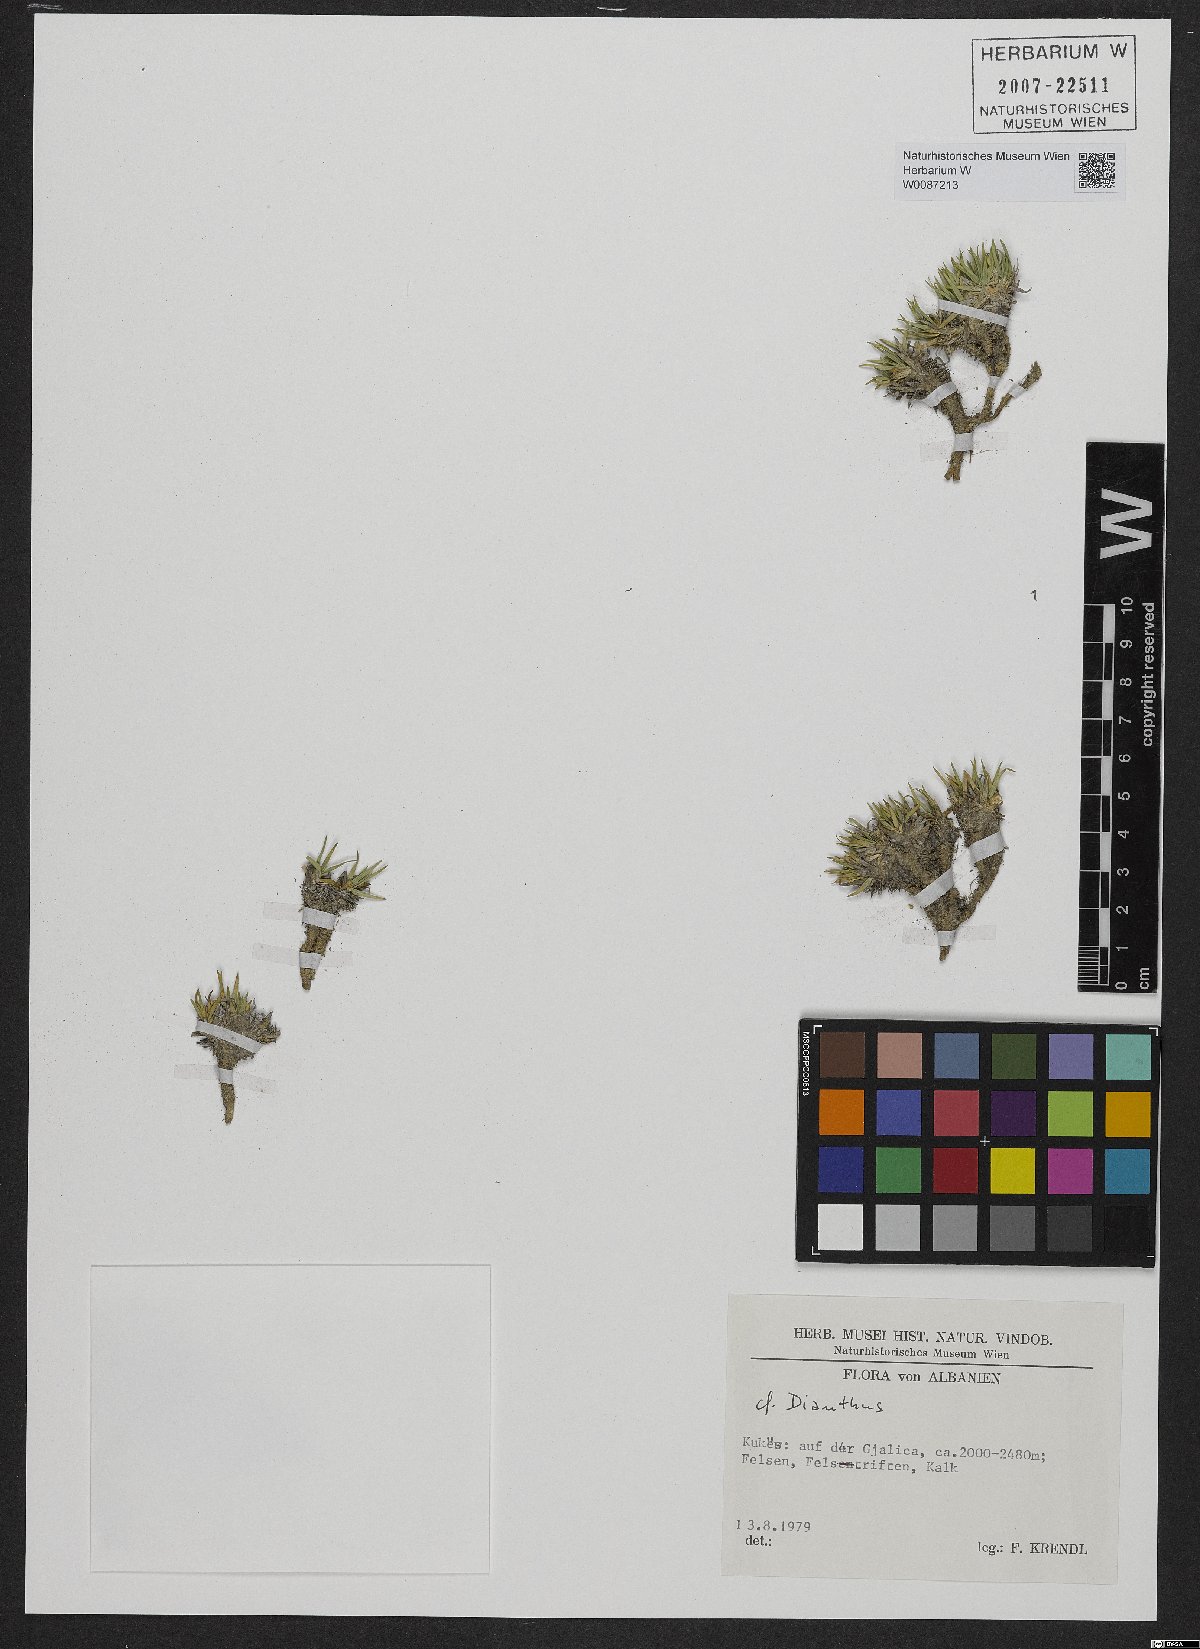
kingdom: Plantae
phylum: Tracheophyta
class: Magnoliopsida
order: Caryophyllales
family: Caryophyllaceae
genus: Dianthus
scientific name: Dianthus
